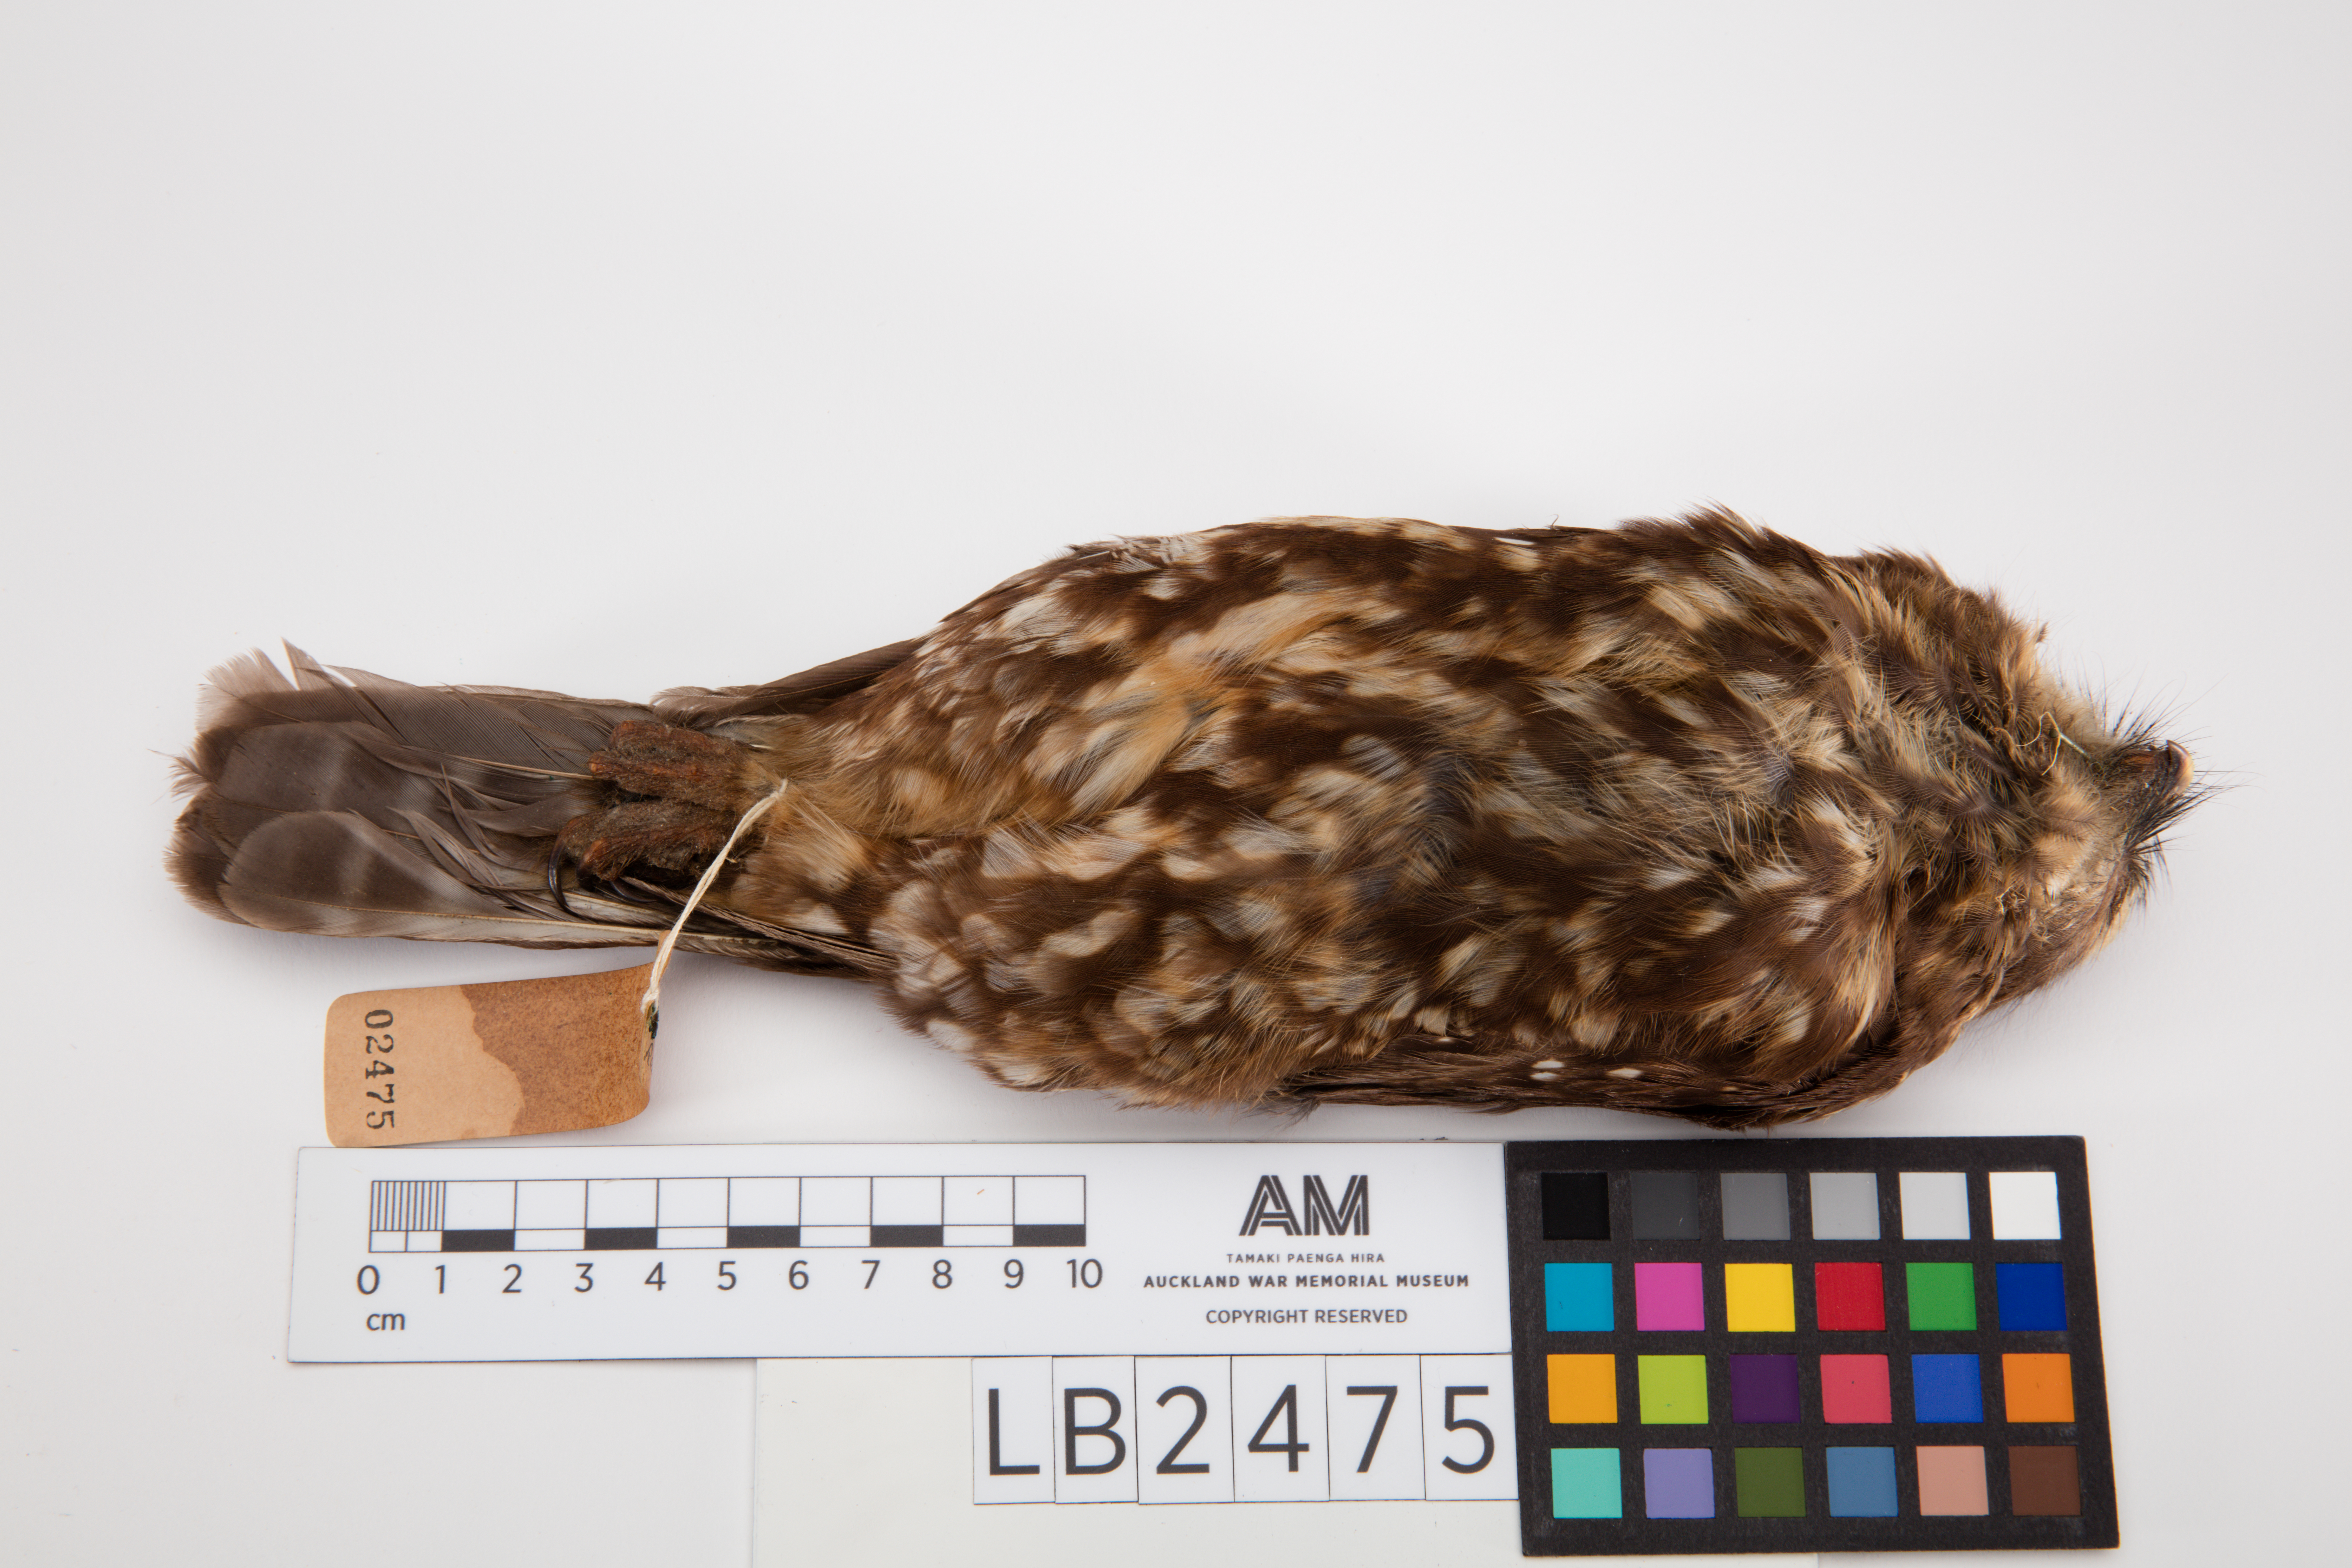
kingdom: Animalia
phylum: Chordata
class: Aves
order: Strigiformes
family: Strigidae
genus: Ninox
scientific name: Ninox novaeseelandiae
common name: Morepork
